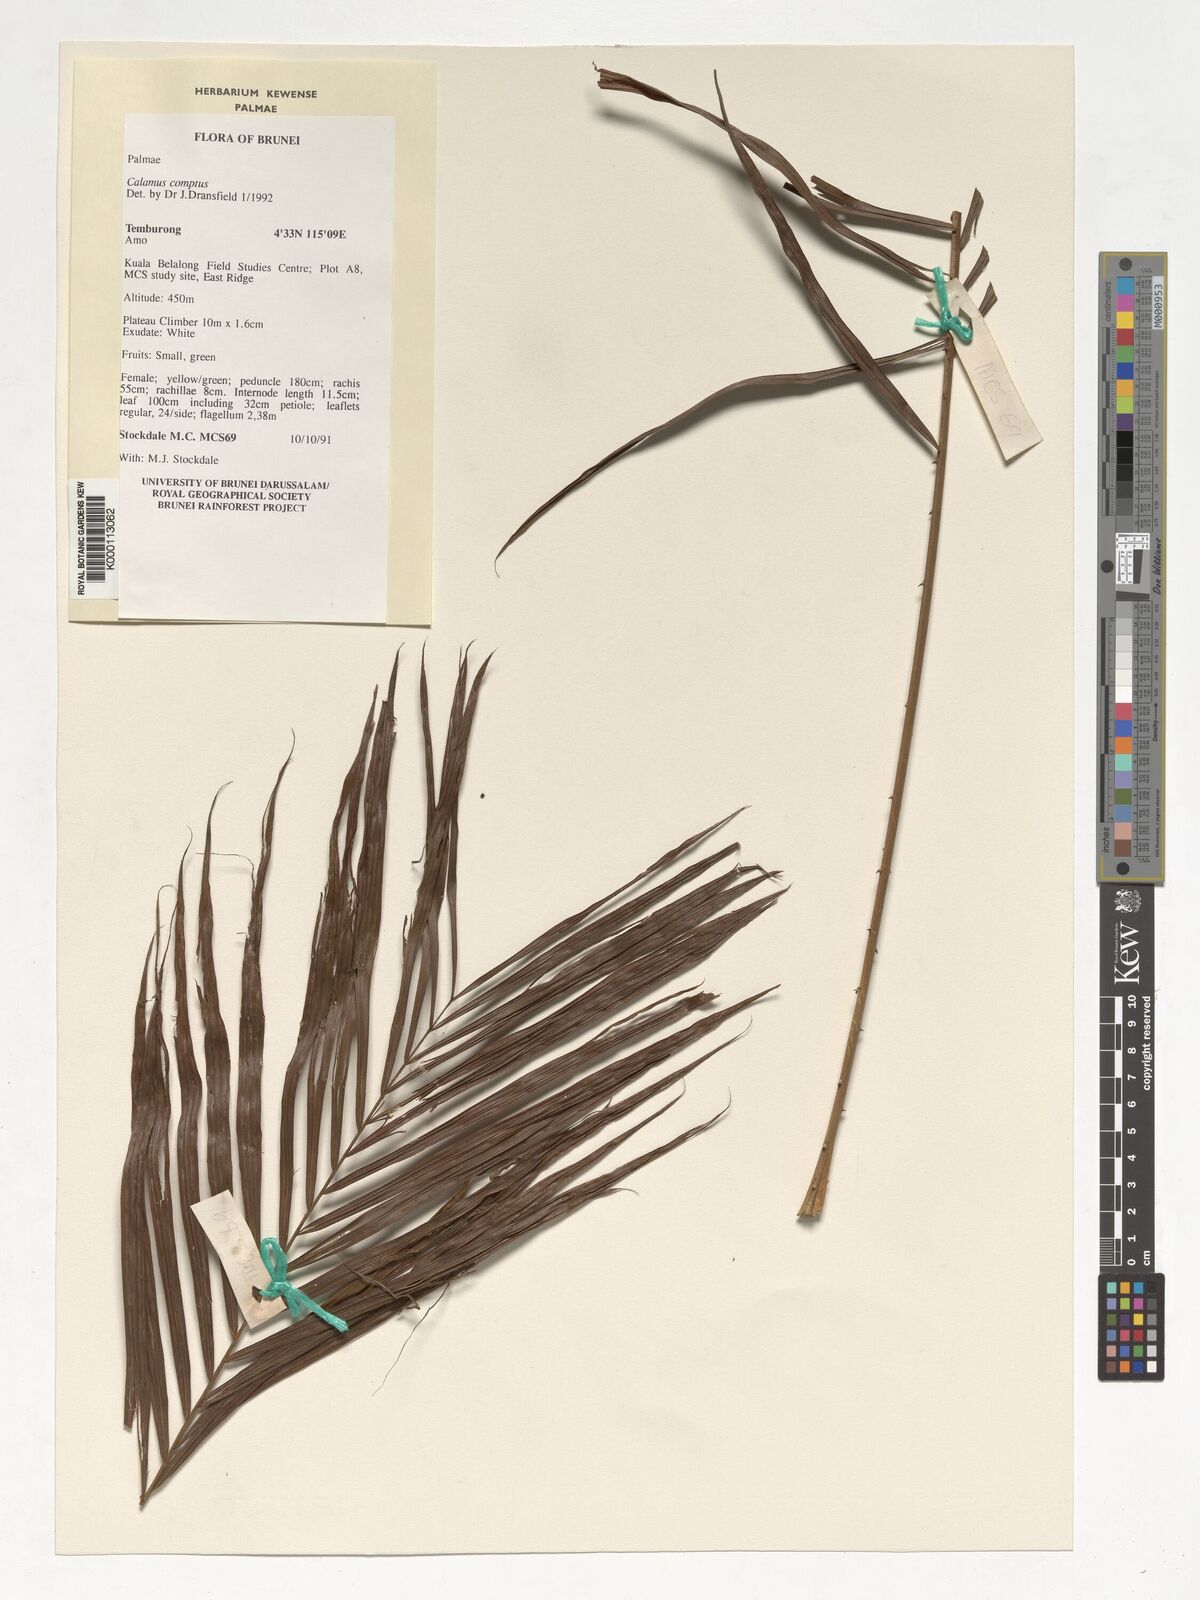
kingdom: Plantae
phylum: Tracheophyta
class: Liliopsida
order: Arecales
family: Arecaceae
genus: Calamus
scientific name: Calamus comptus
